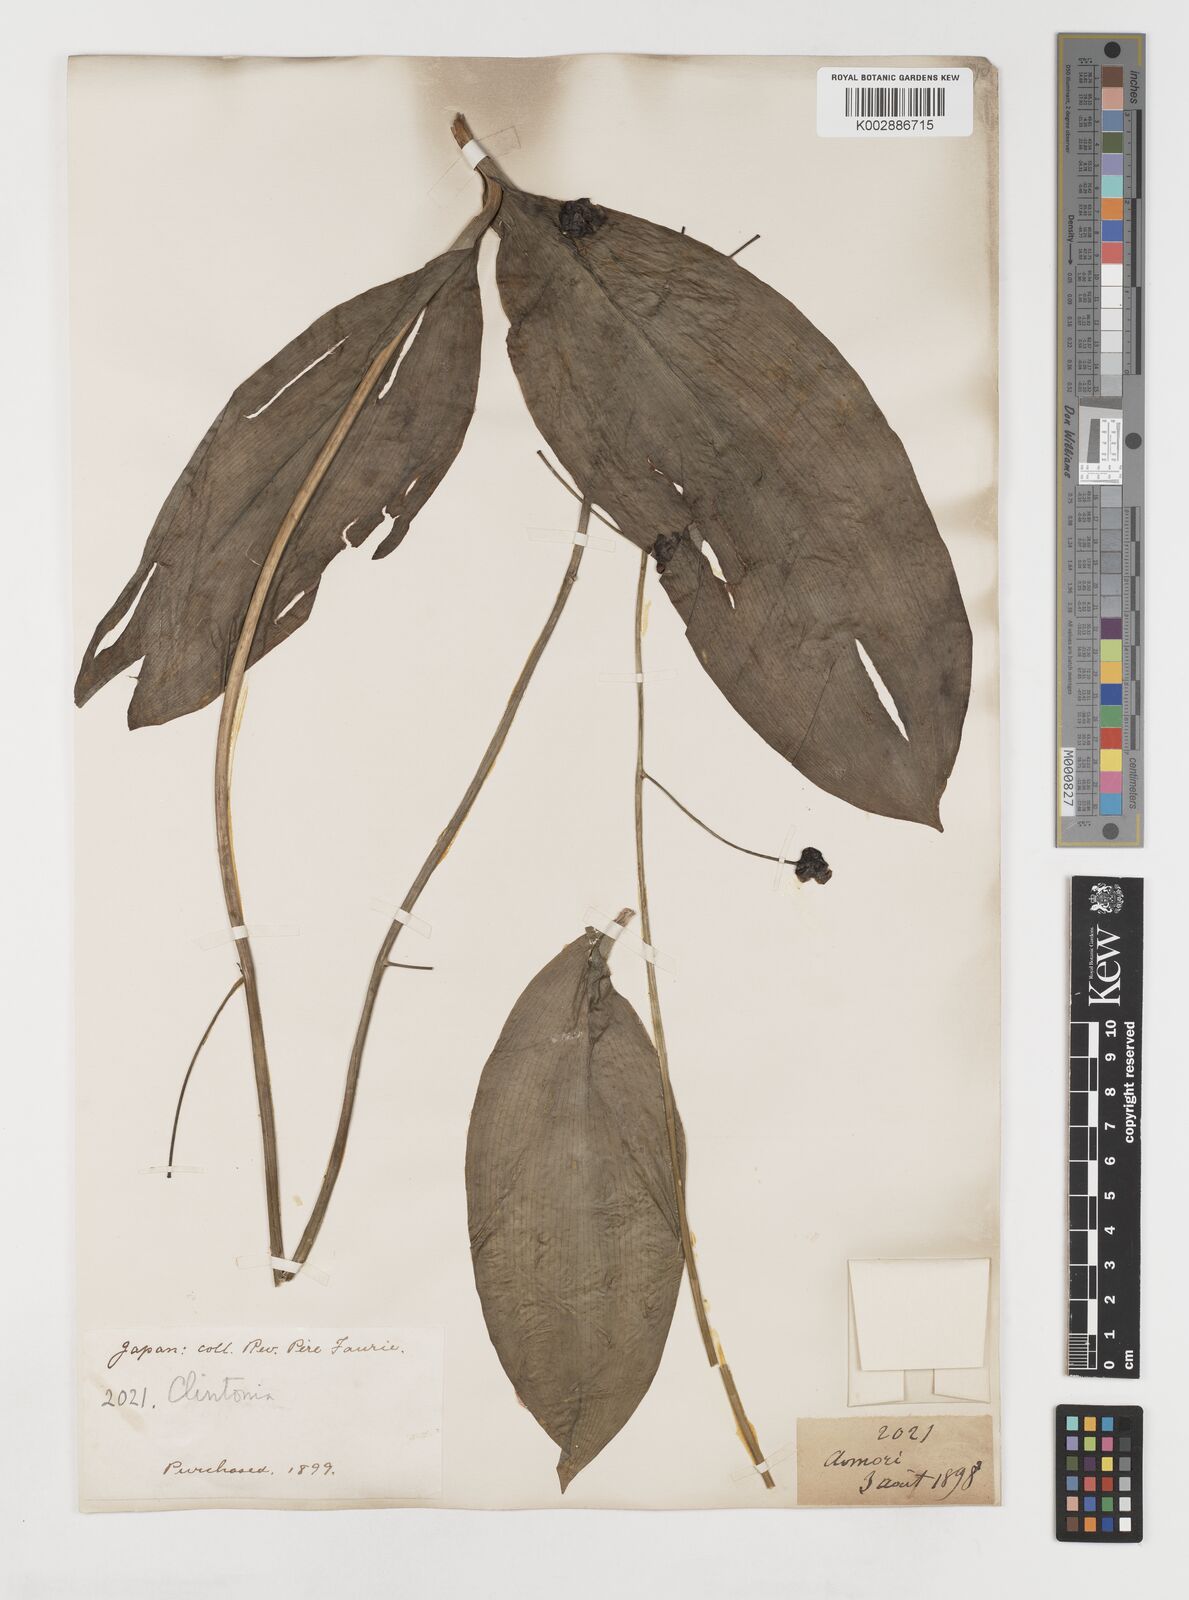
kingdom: Plantae
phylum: Tracheophyta
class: Liliopsida
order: Liliales
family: Liliaceae
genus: Clintonia
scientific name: Clintonia udensis
